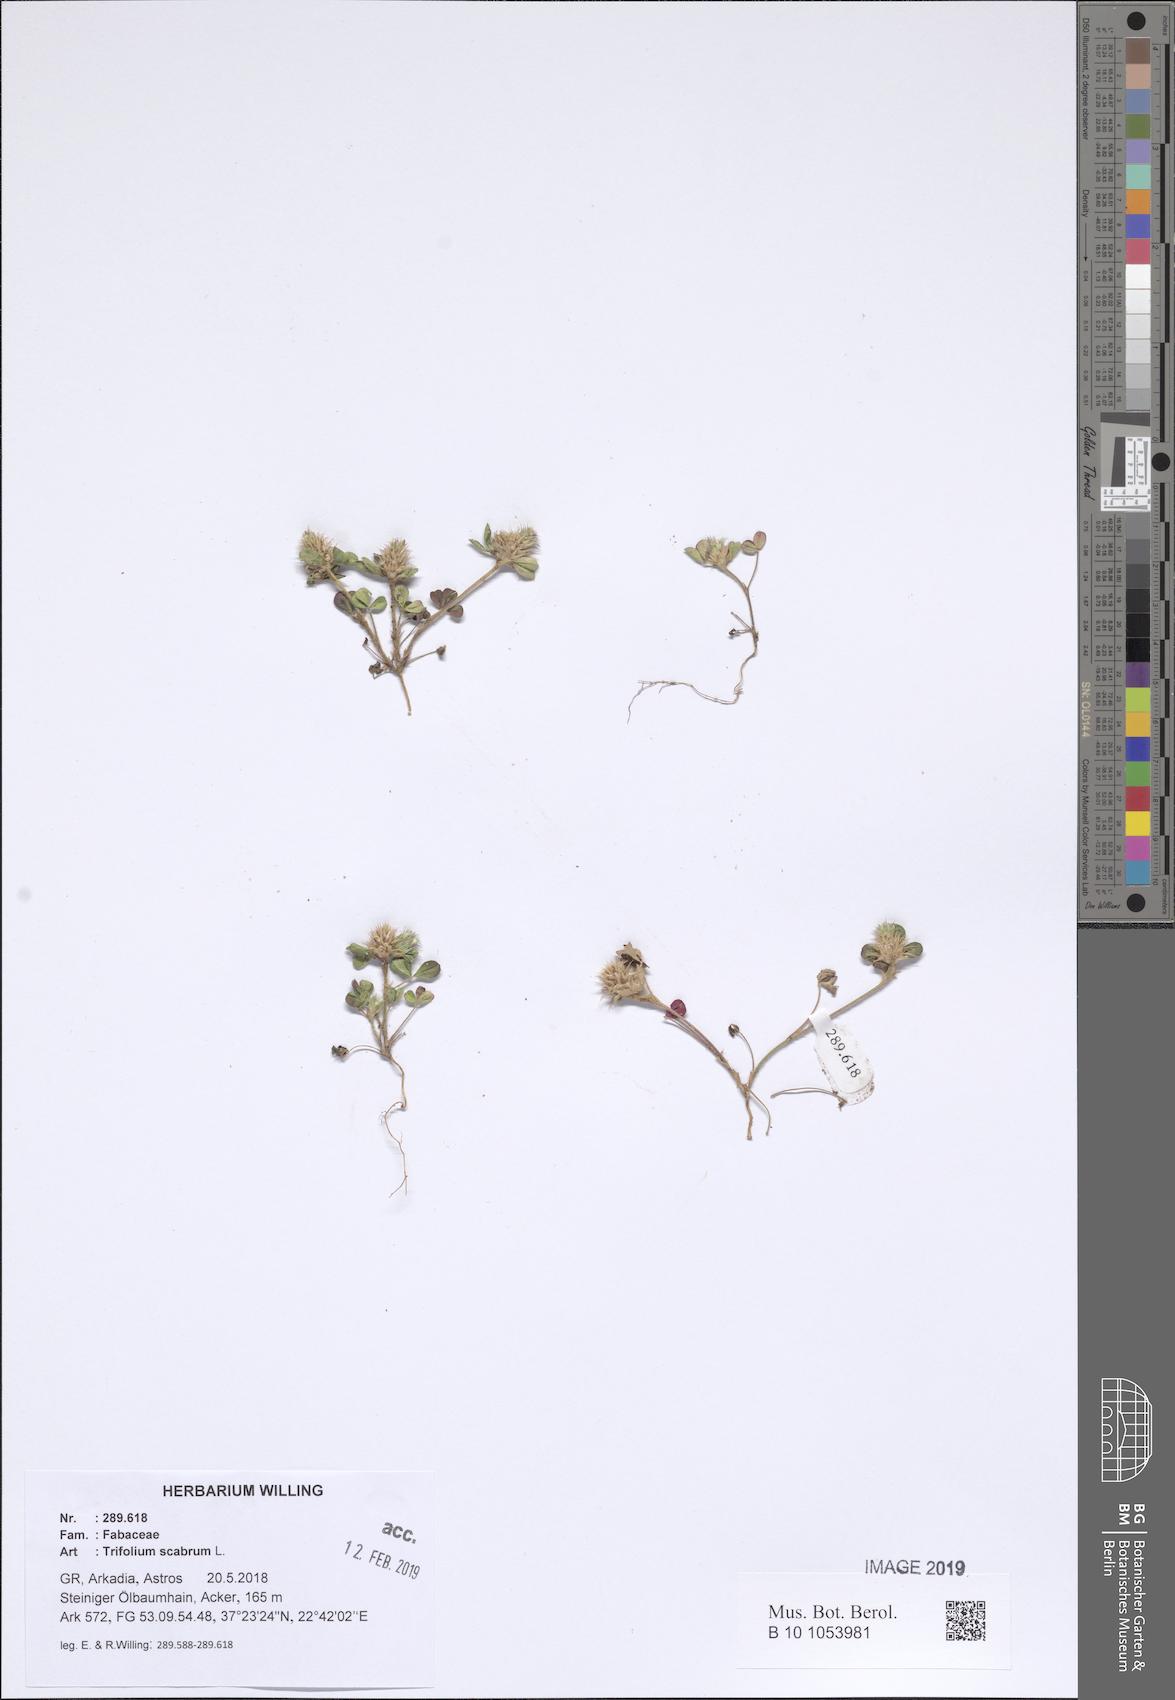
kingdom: Plantae
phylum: Tracheophyta
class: Magnoliopsida
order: Fabales
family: Fabaceae
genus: Trifolium
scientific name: Trifolium scabrum
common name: Rough clover
